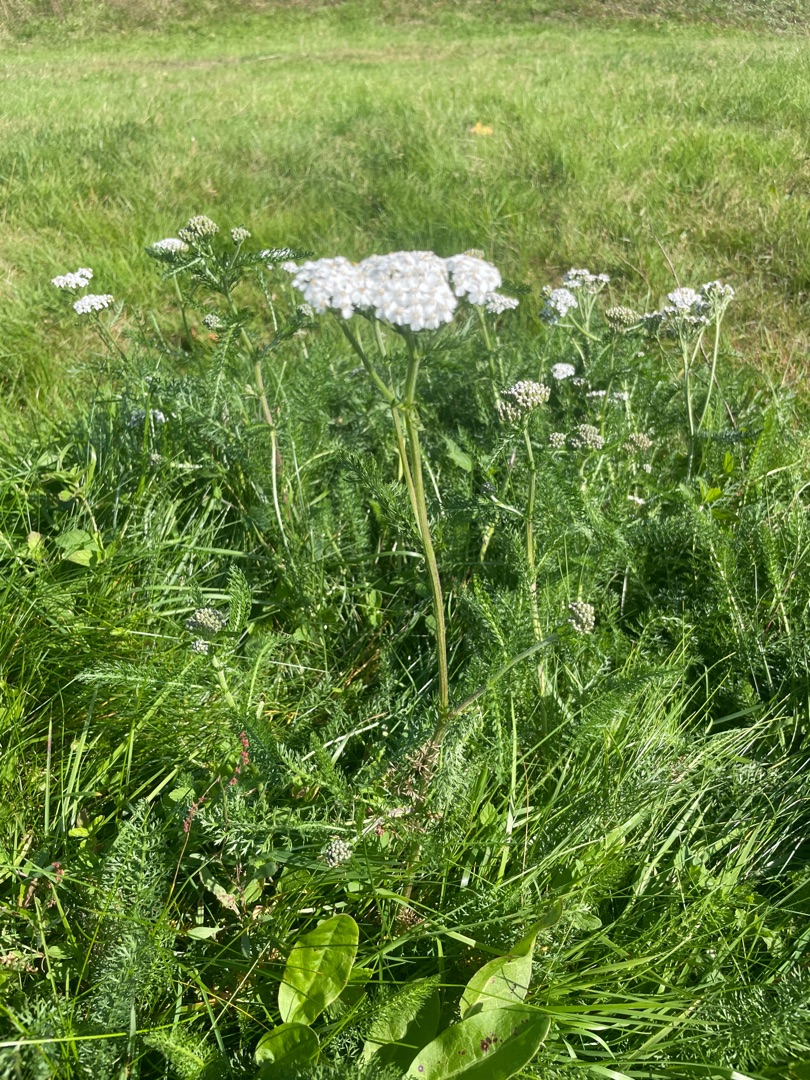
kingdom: Plantae
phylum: Tracheophyta
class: Magnoliopsida
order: Asterales
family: Asteraceae
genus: Achillea
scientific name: Achillea millefolium
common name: Almindelig røllike
